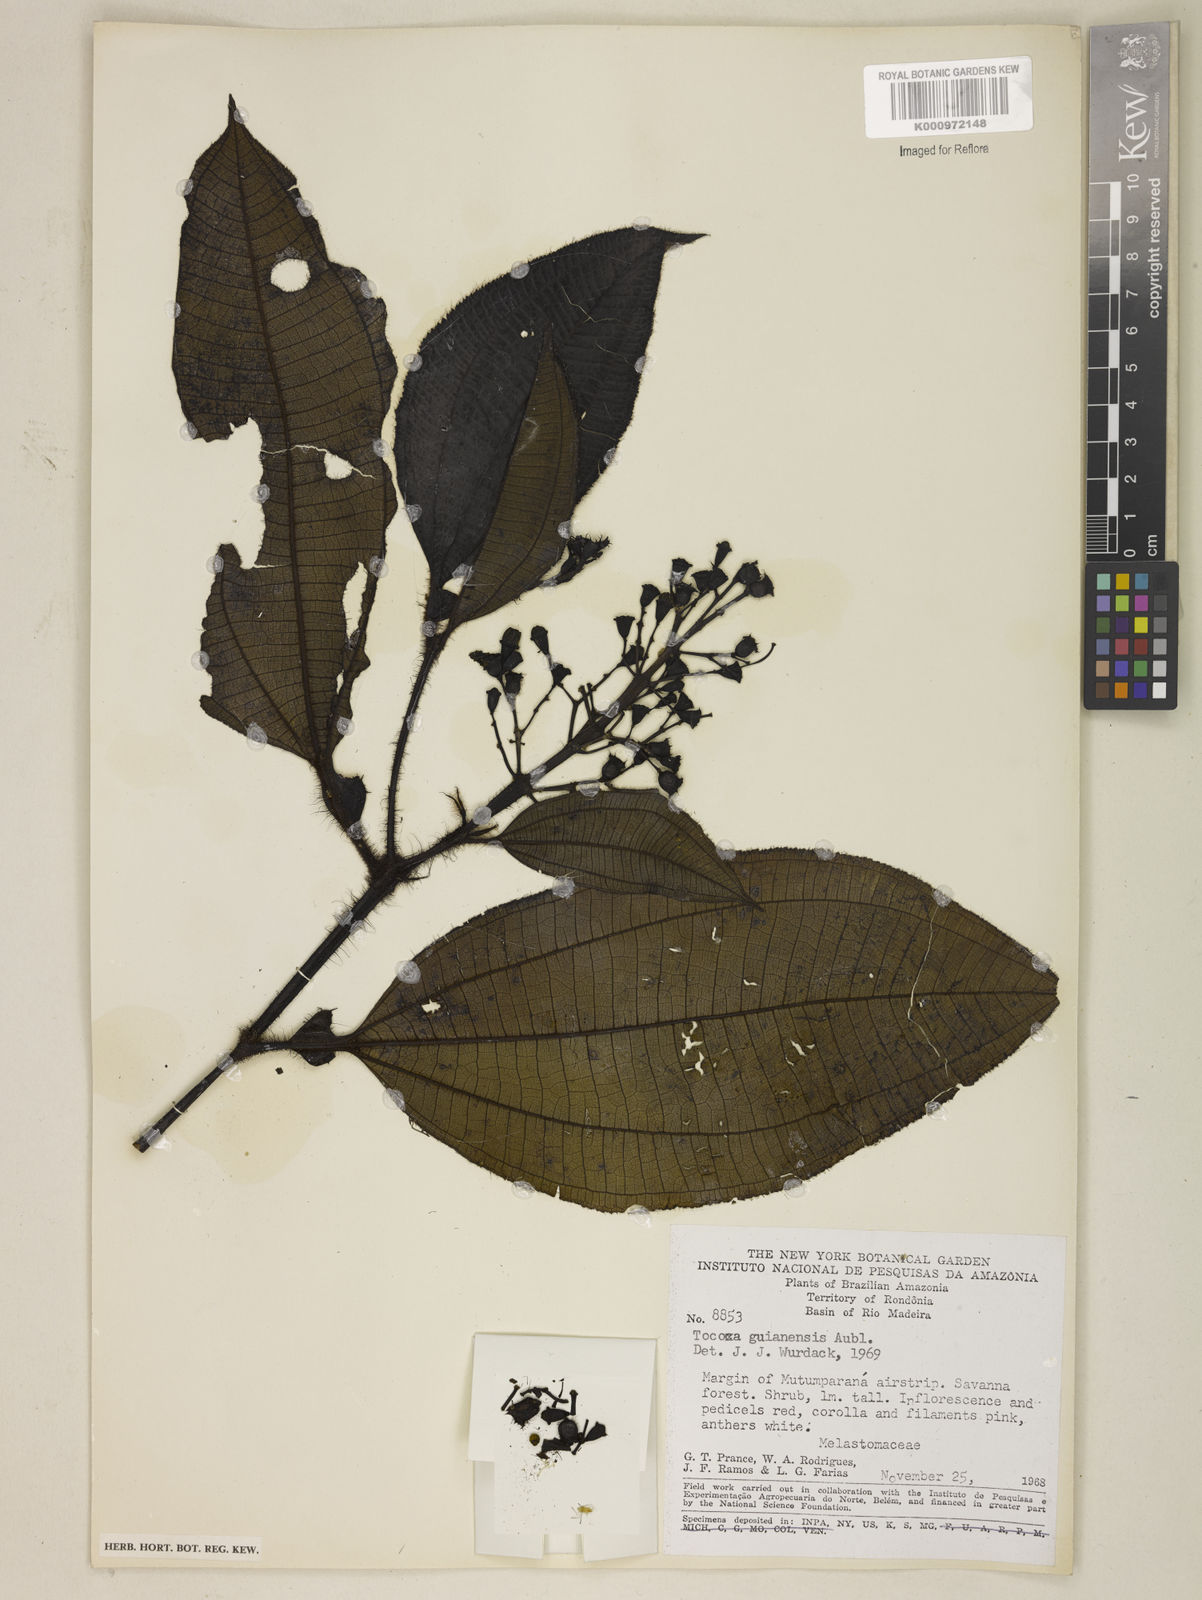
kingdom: Plantae
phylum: Tracheophyta
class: Magnoliopsida
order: Myrtales
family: Melastomataceae
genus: Miconia
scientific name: Miconia tococa
